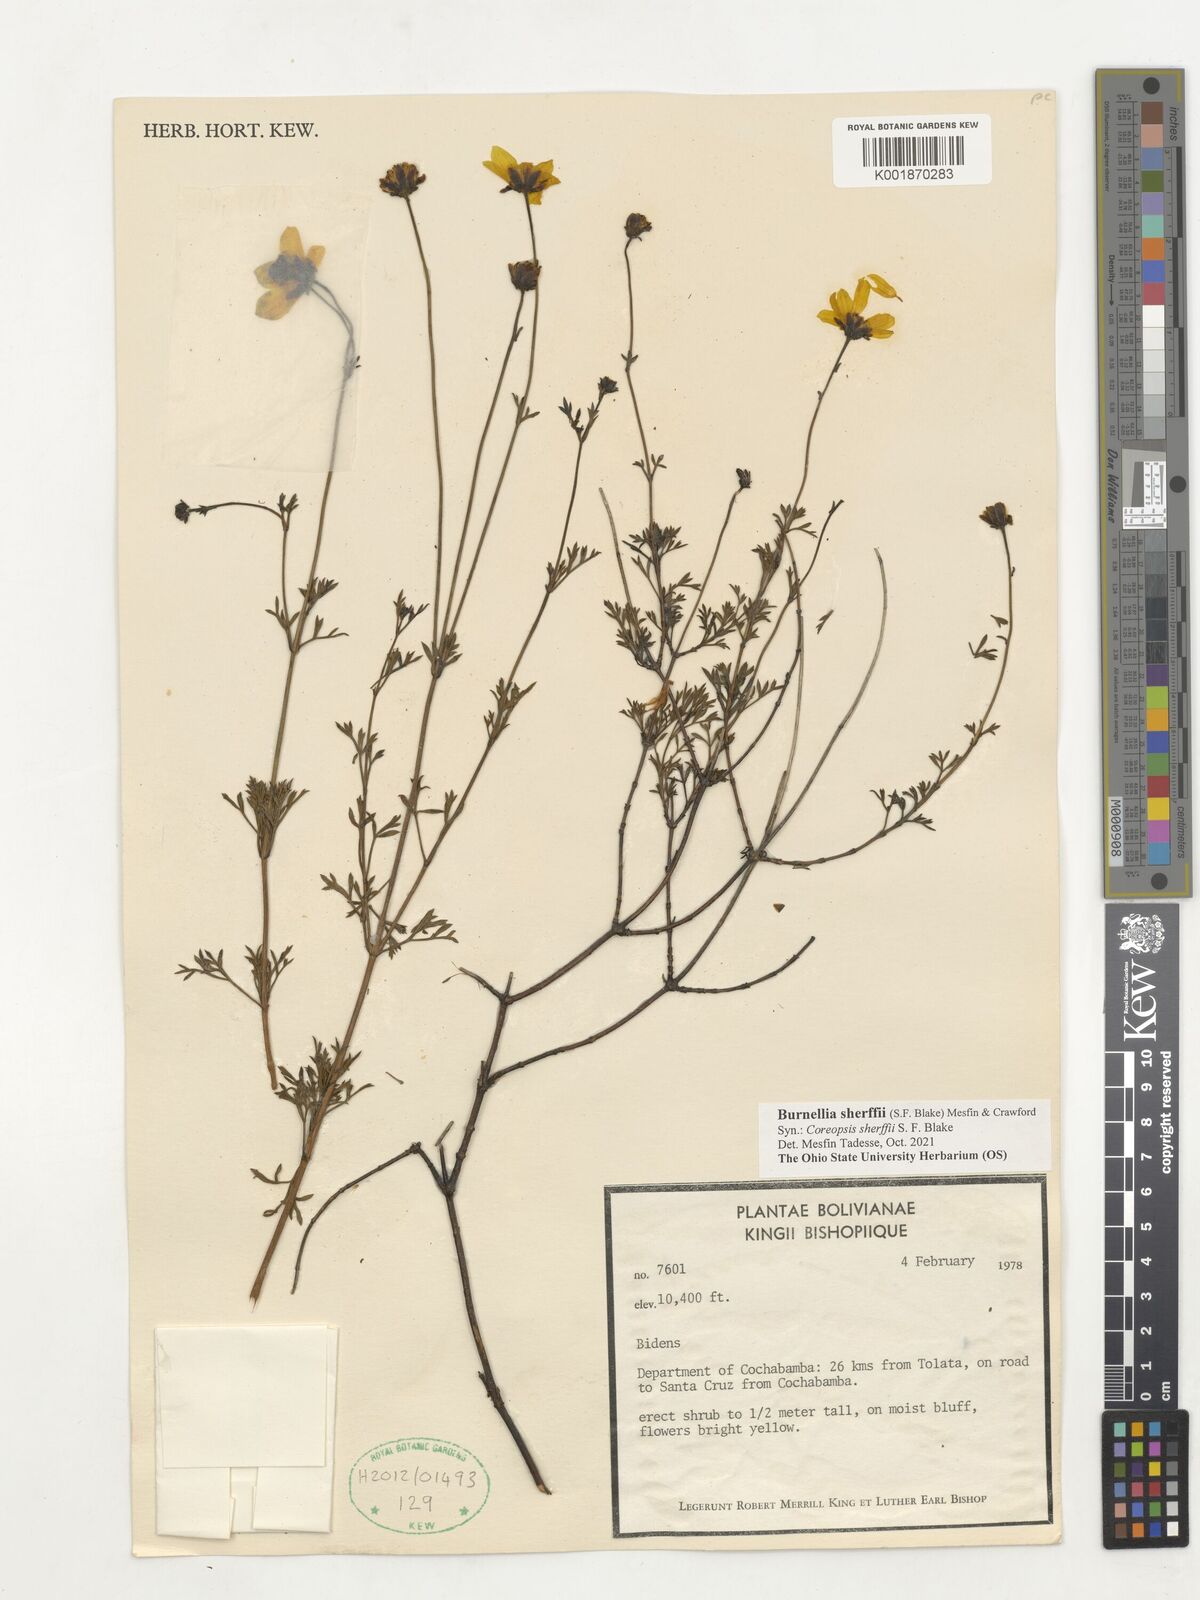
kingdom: Plantae
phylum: Tracheophyta
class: Magnoliopsida
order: Asterales
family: Asteraceae
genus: Coreopsis
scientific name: Coreopsis sherffii
